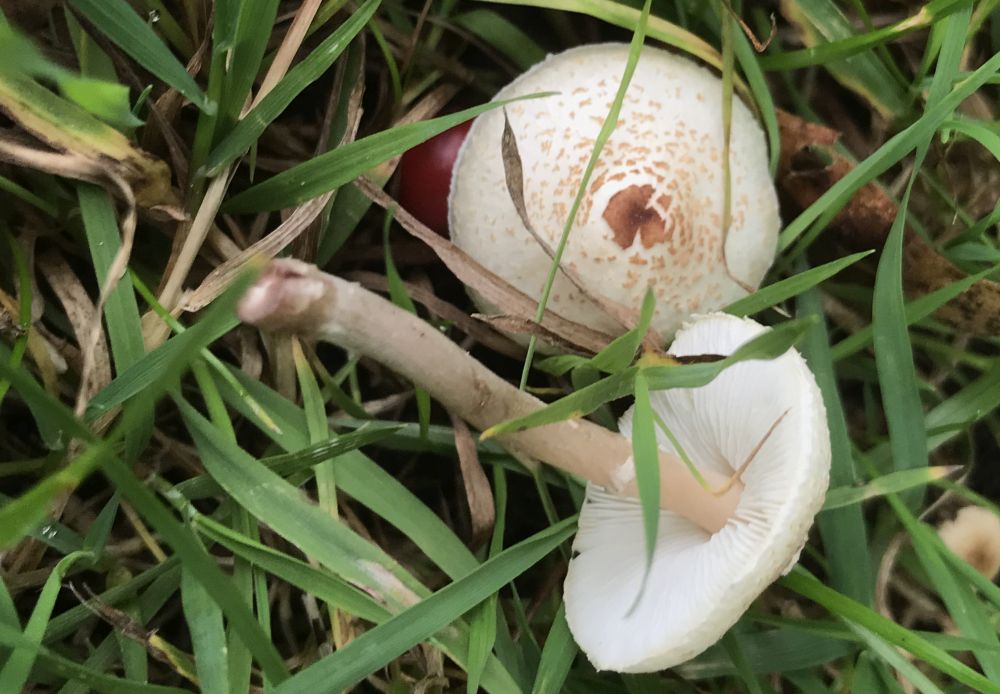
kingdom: Fungi
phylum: Basidiomycota
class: Agaricomycetes
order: Agaricales
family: Agaricaceae
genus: Lepiota
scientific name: Lepiota cristata
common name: stinkende parasolhat
